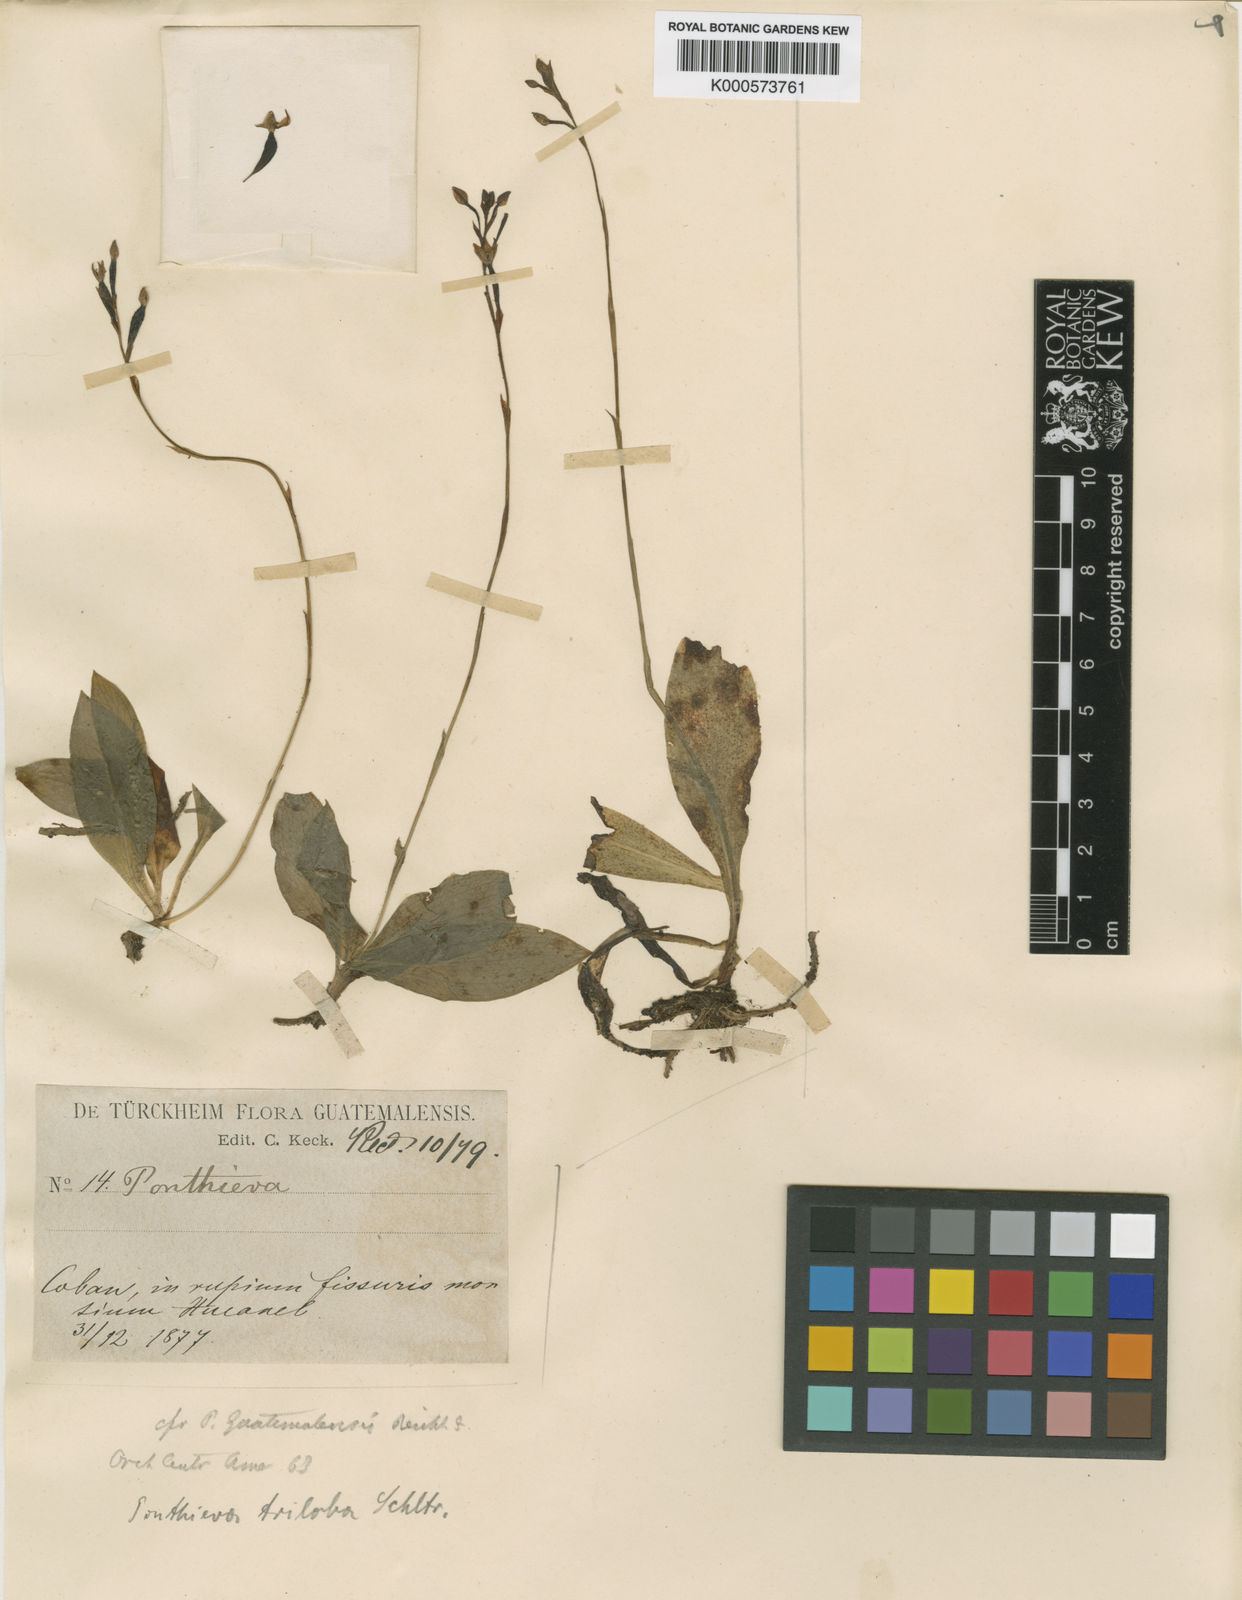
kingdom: Plantae
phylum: Tracheophyta
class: Liliopsida
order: Asparagales
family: Orchidaceae
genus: Ponthieva
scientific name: Ponthieva triloba
